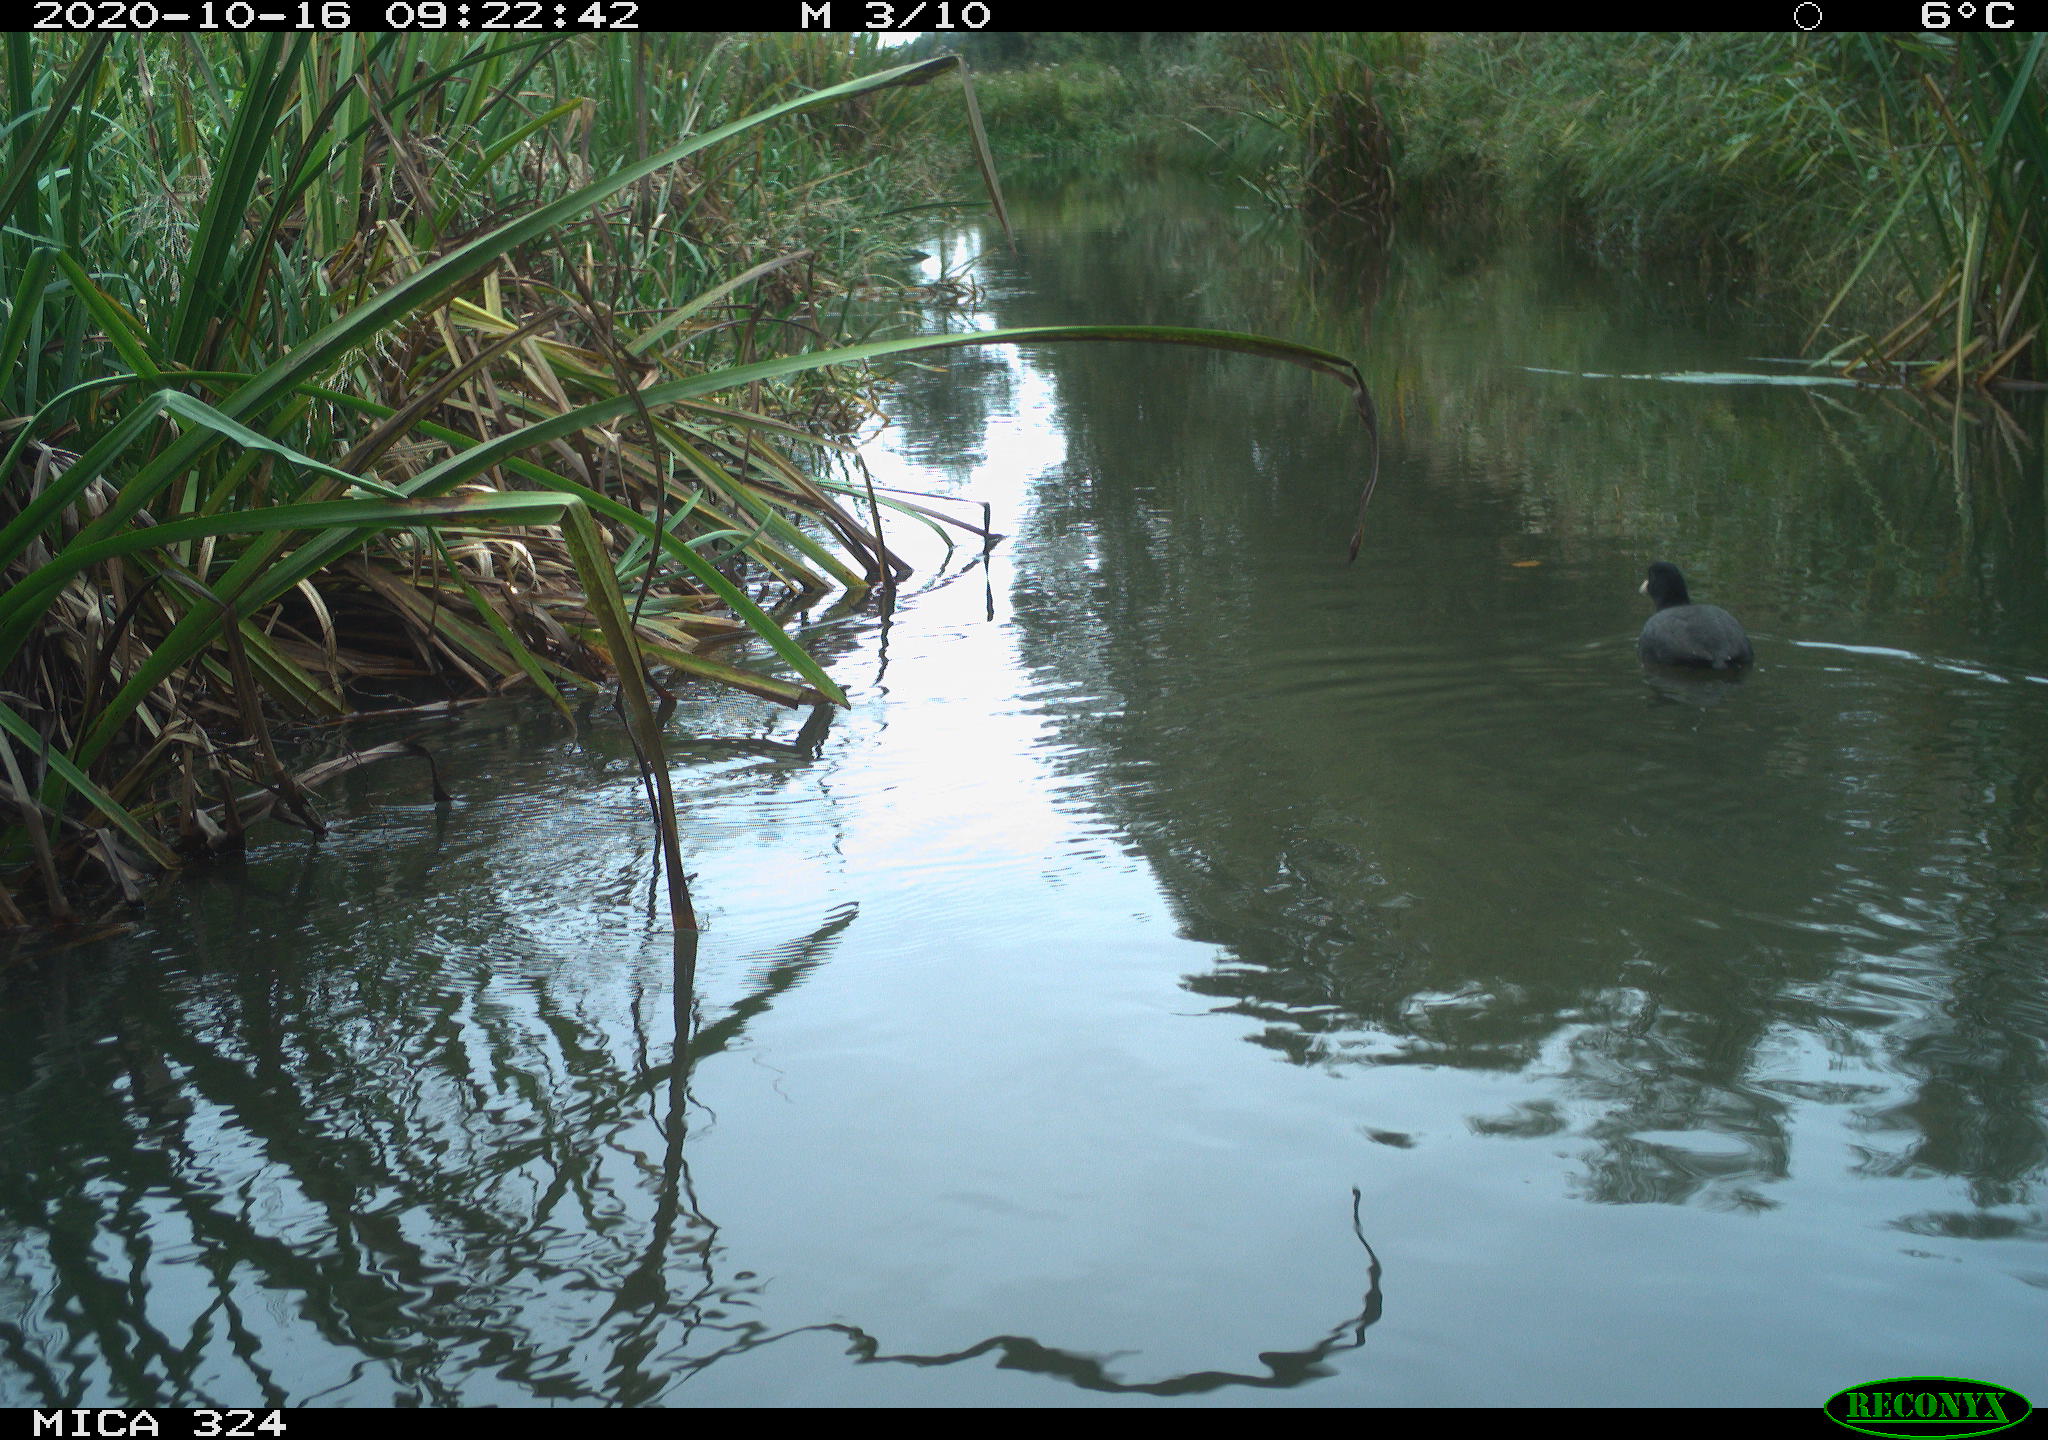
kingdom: Animalia
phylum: Chordata
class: Aves
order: Gruiformes
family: Rallidae
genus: Fulica
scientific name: Fulica atra
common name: Eurasian coot
